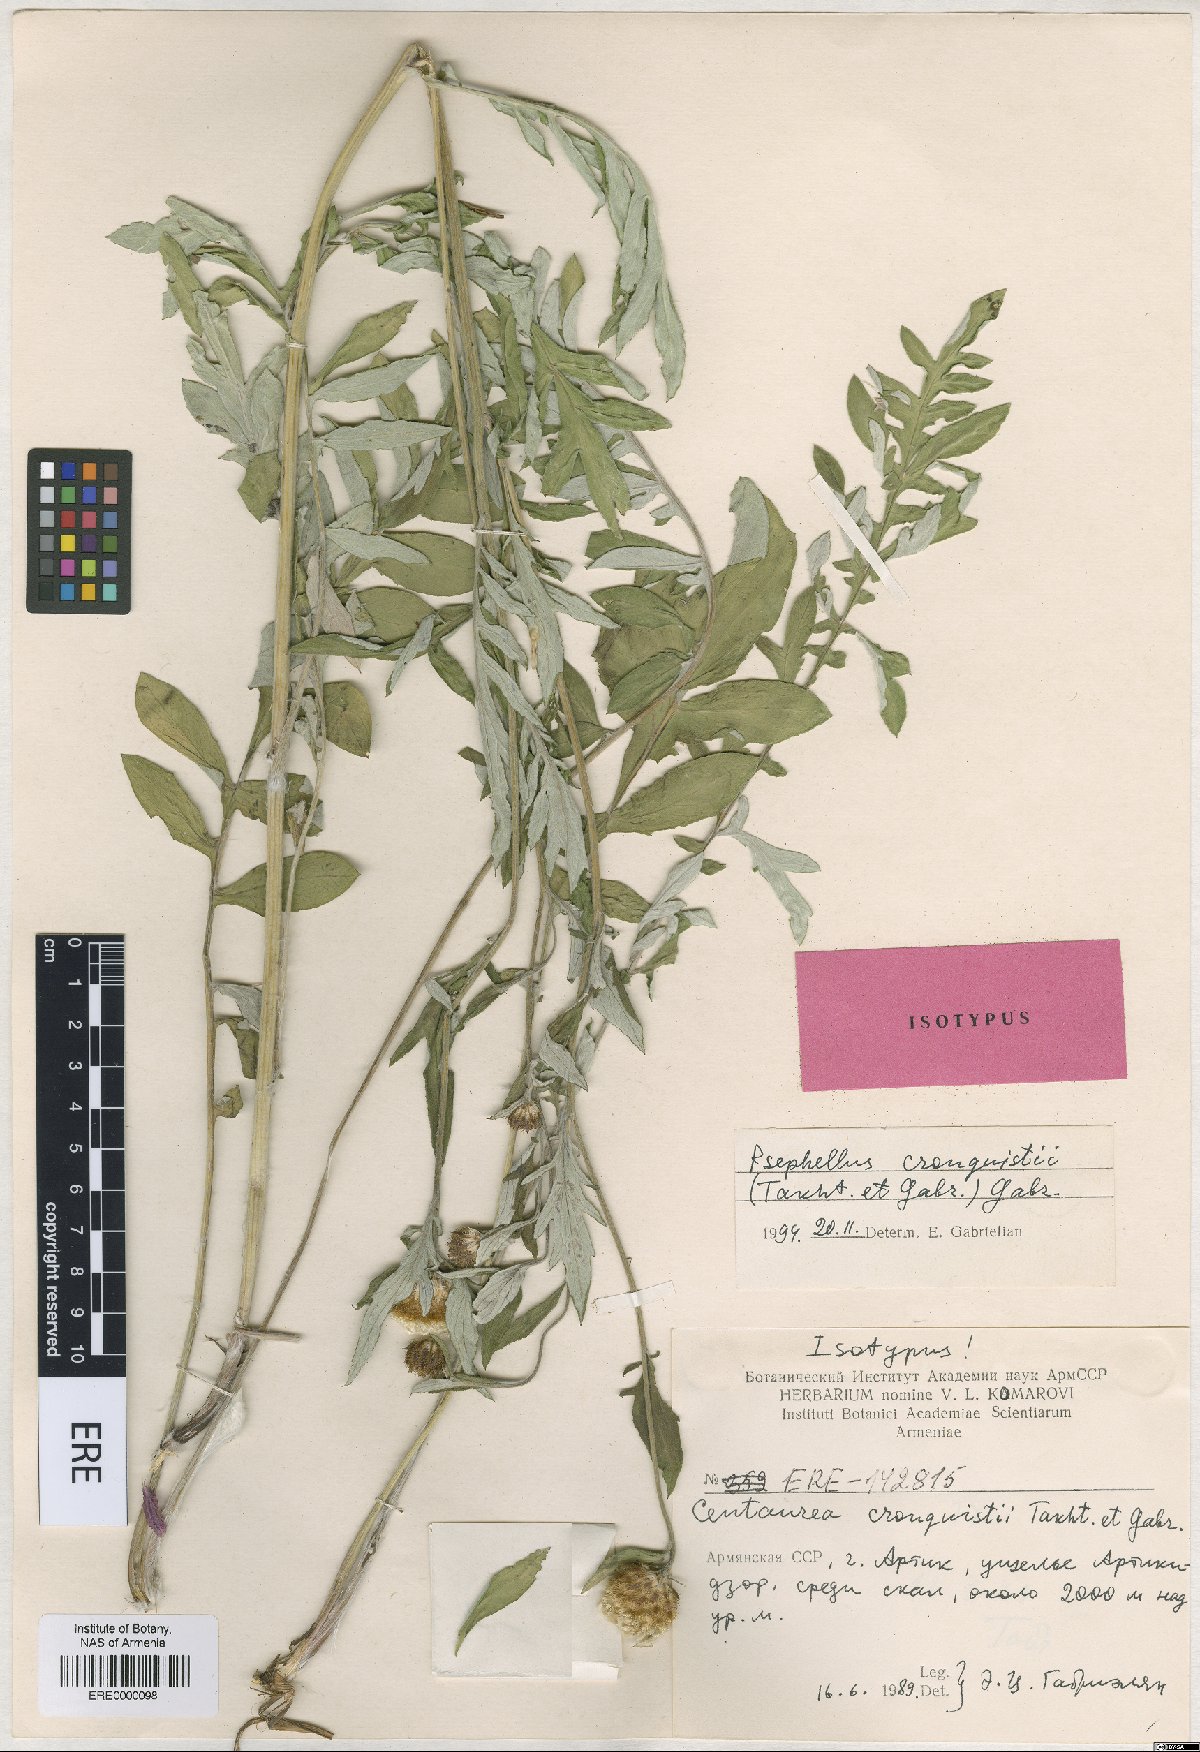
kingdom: Plantae
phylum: Tracheophyta
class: Magnoliopsida
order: Asterales
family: Asteraceae
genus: Psephellus
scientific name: Psephellus cronquistii
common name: Cronquists's cornflower
